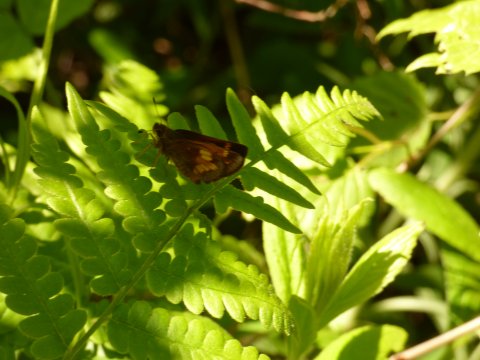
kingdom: Animalia
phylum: Arthropoda
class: Insecta
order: Lepidoptera
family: Hesperiidae
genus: Lon
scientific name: Lon hobomok
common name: Hobomok Skipper
